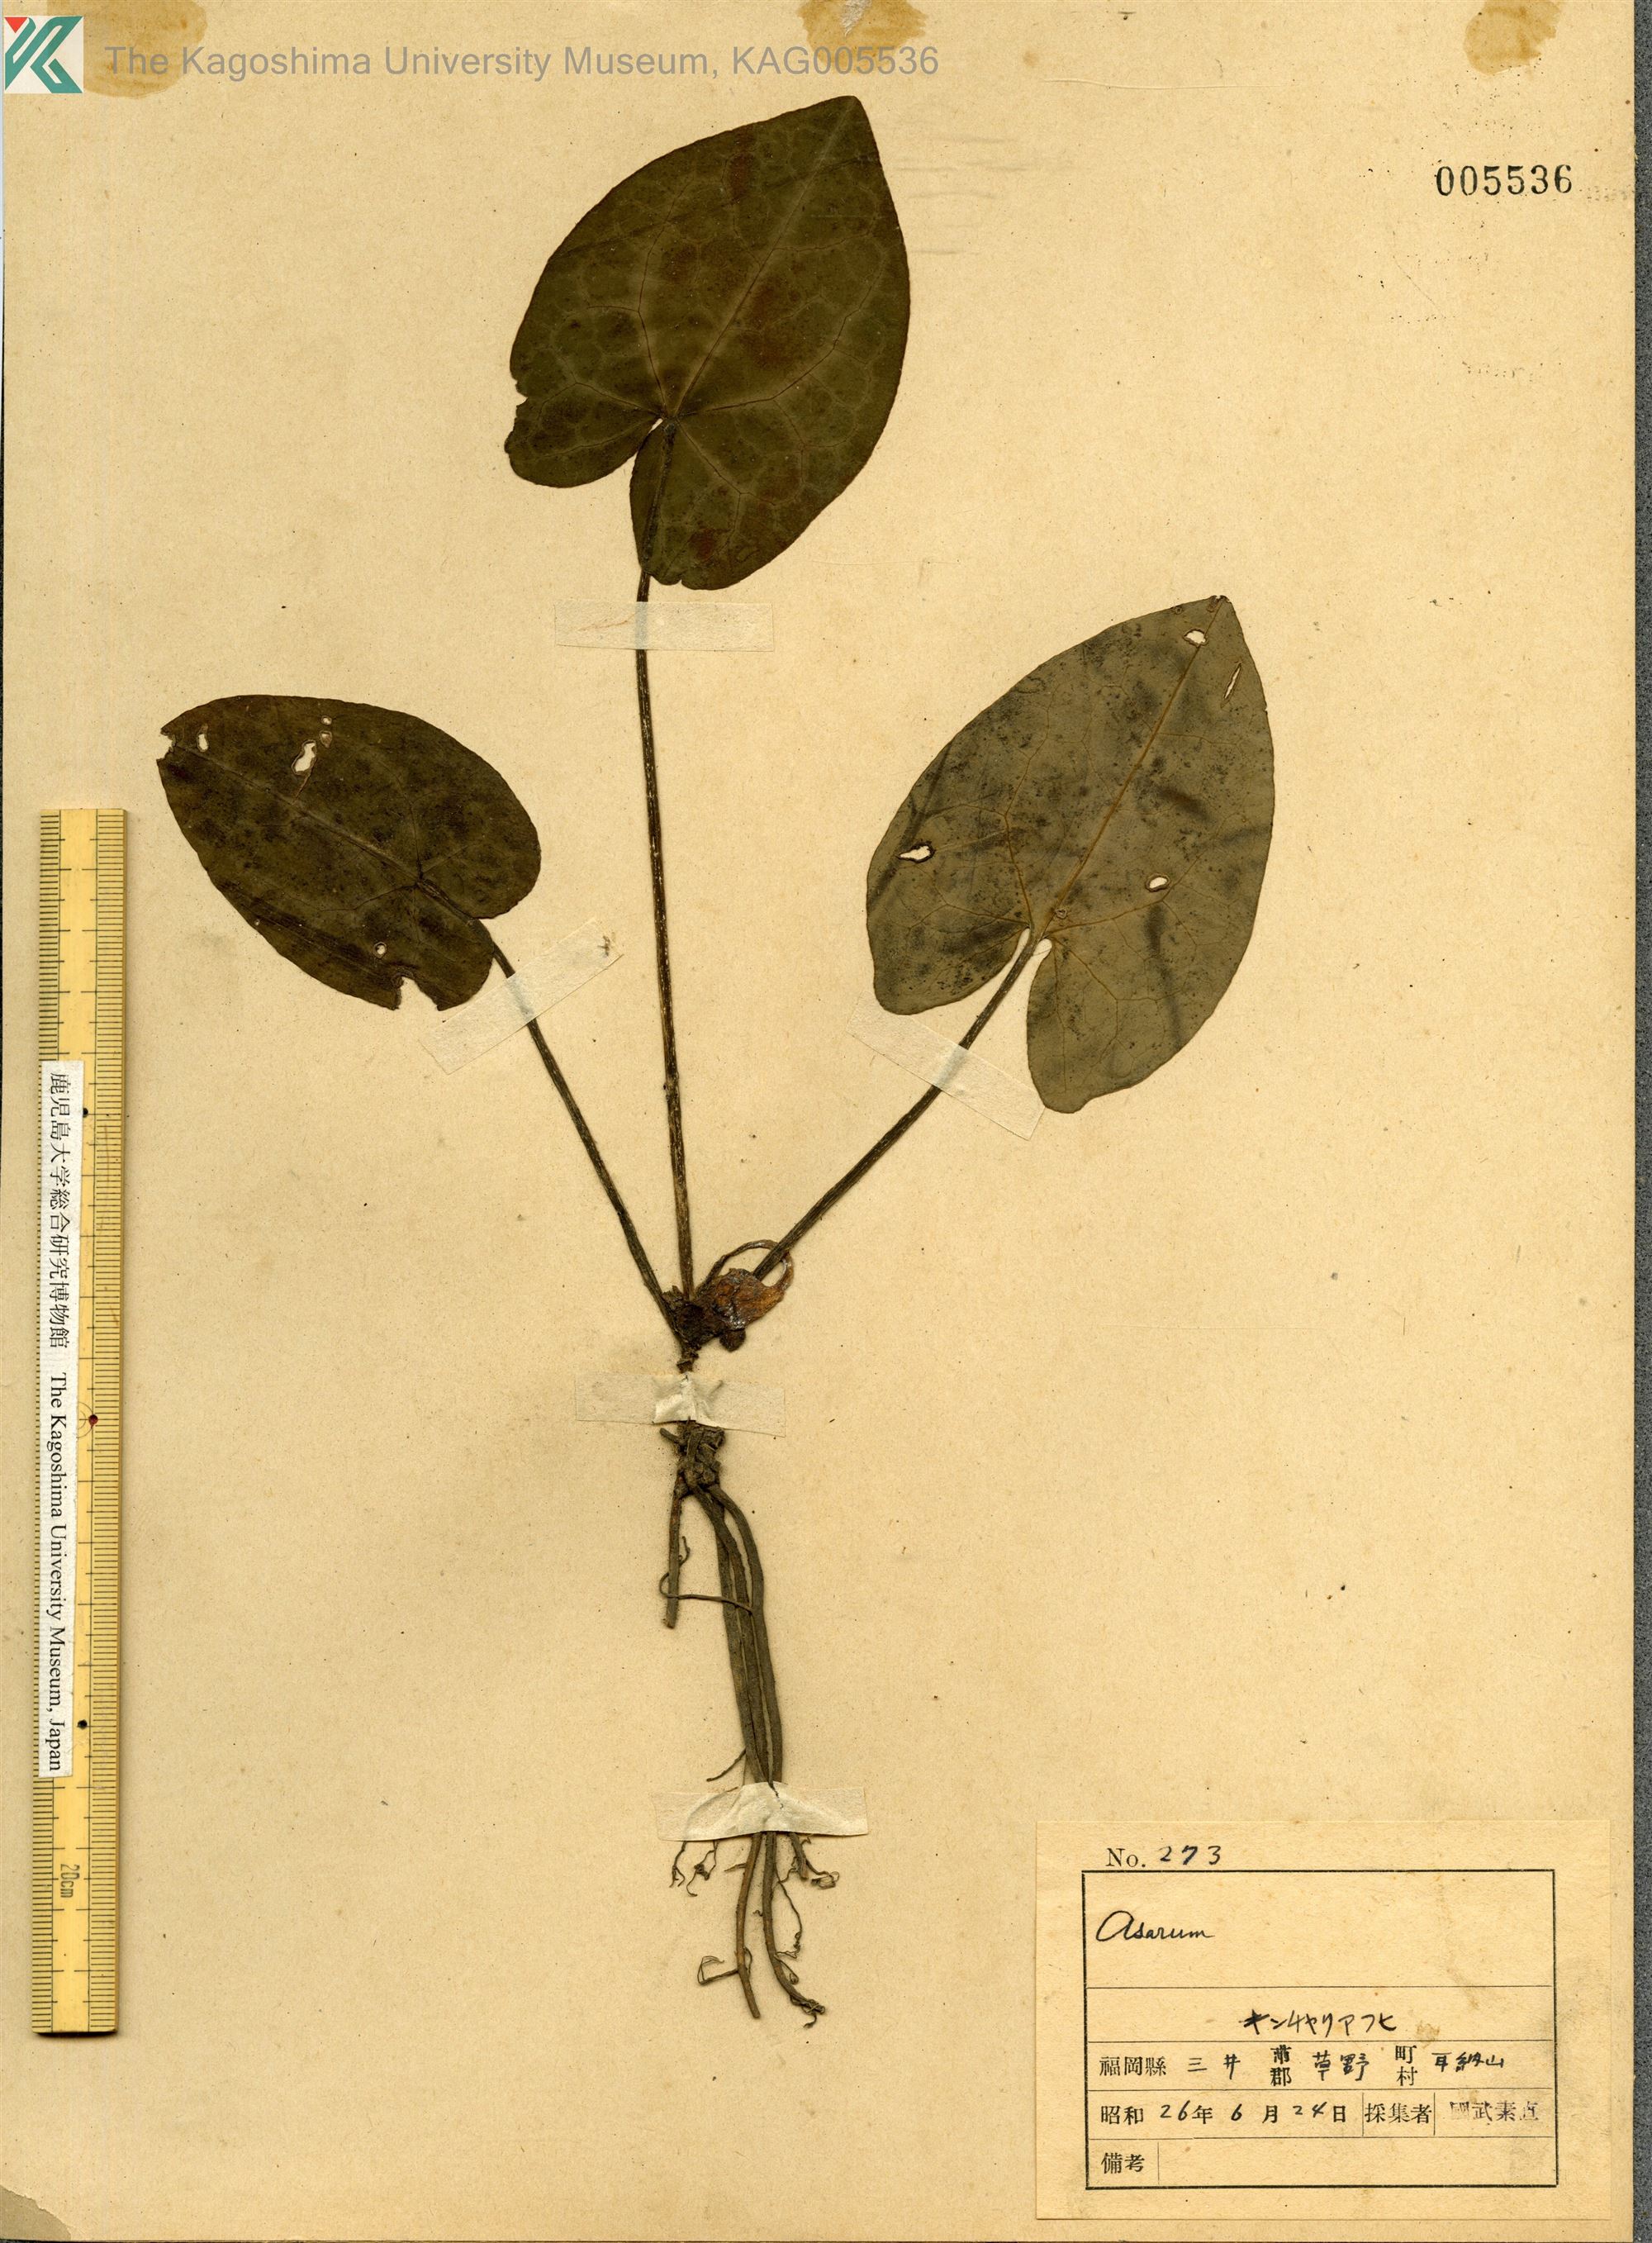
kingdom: Plantae
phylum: Tracheophyta
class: Magnoliopsida
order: Piperales
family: Aristolochiaceae
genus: Asarum
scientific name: Asarum hexalobum
